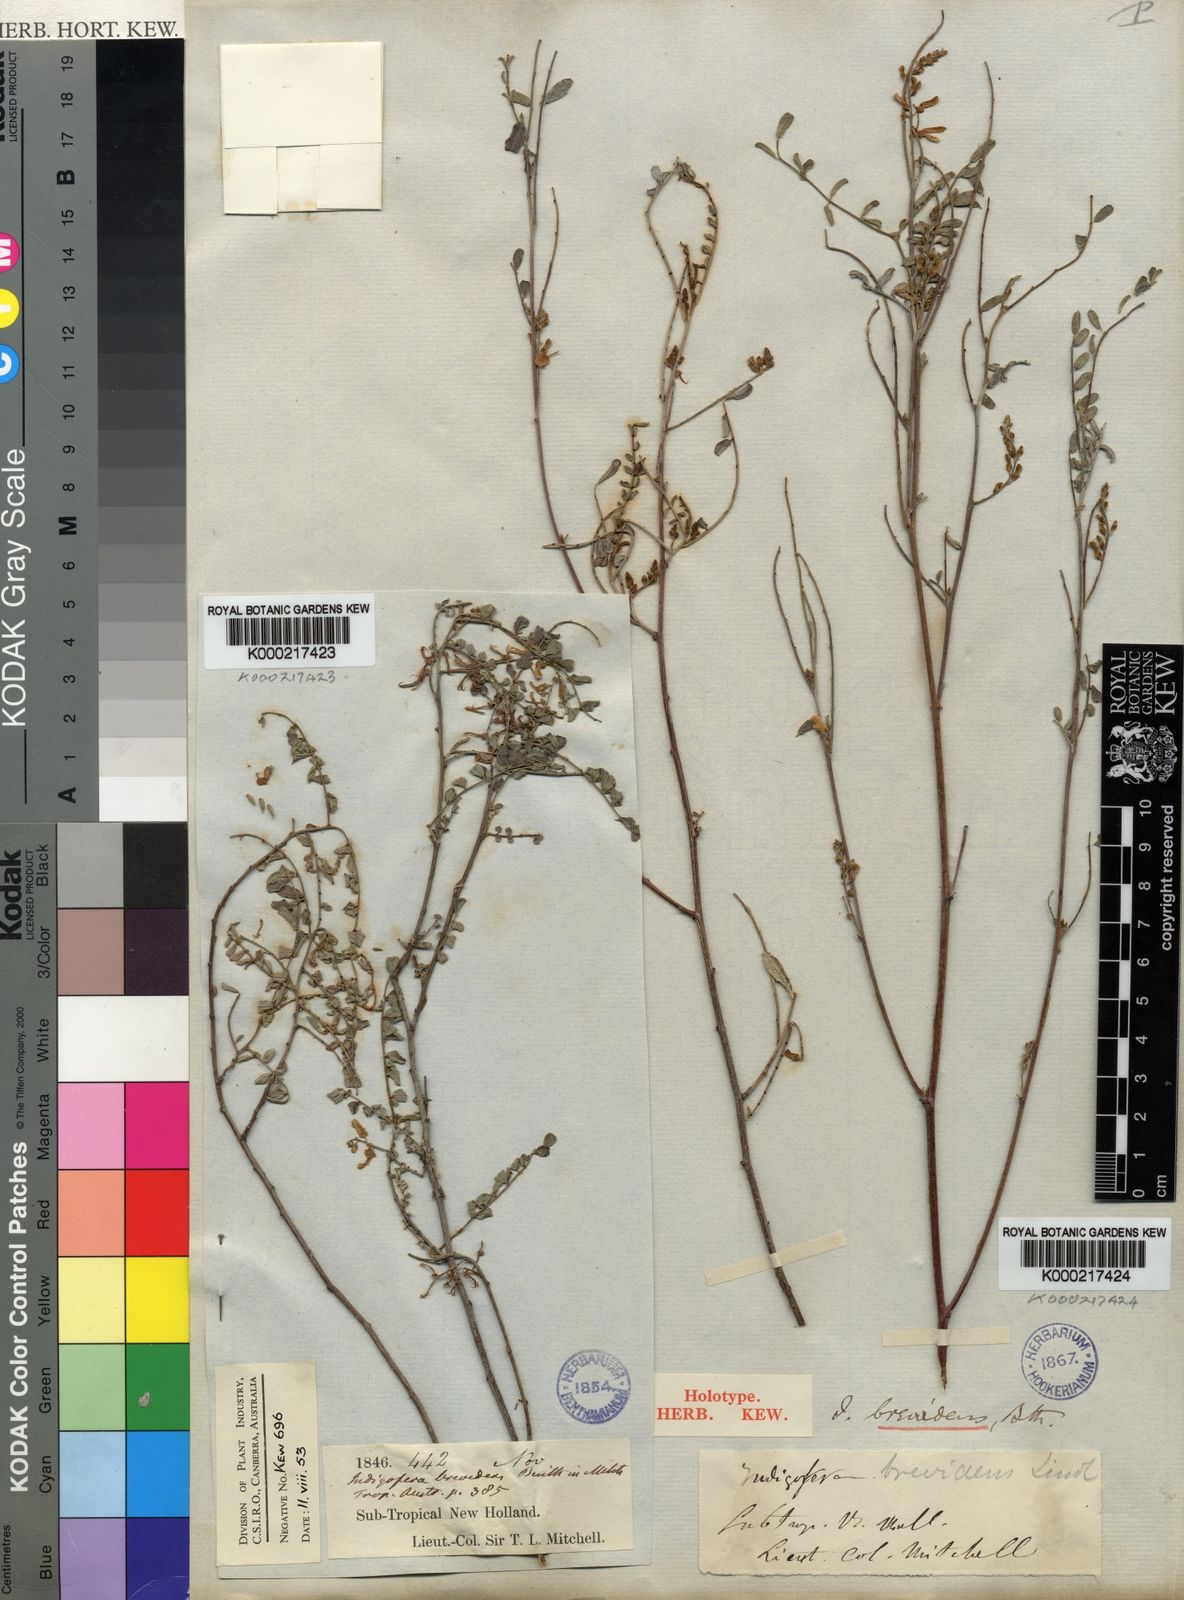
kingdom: Plantae
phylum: Tracheophyta
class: Magnoliopsida
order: Fabales
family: Fabaceae
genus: Indigofera
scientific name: Indigofera brevidens
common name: Desert indigo
